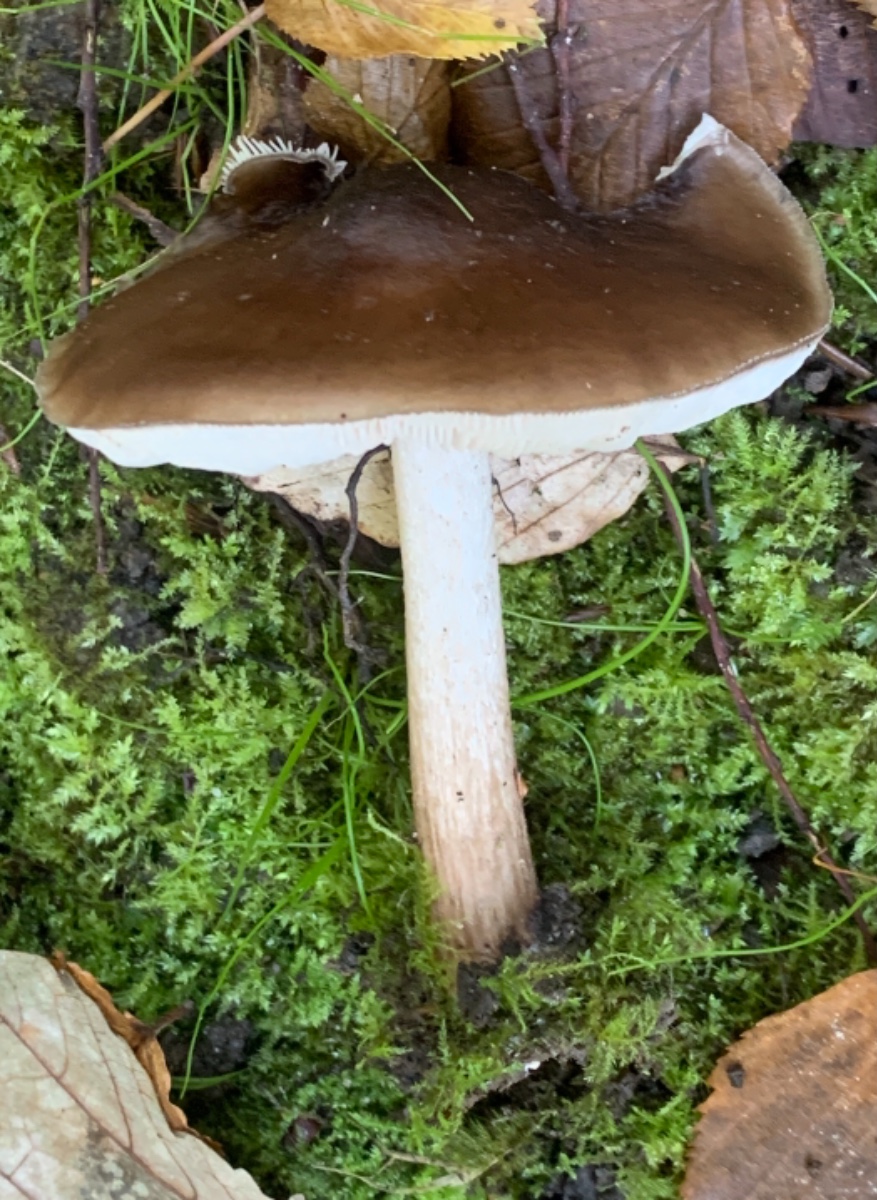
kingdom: Fungi
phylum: Basidiomycota
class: Agaricomycetes
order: Agaricales
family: Pluteaceae
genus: Pluteus
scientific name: Pluteus cervinus
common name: sodfarvet skærmhat
